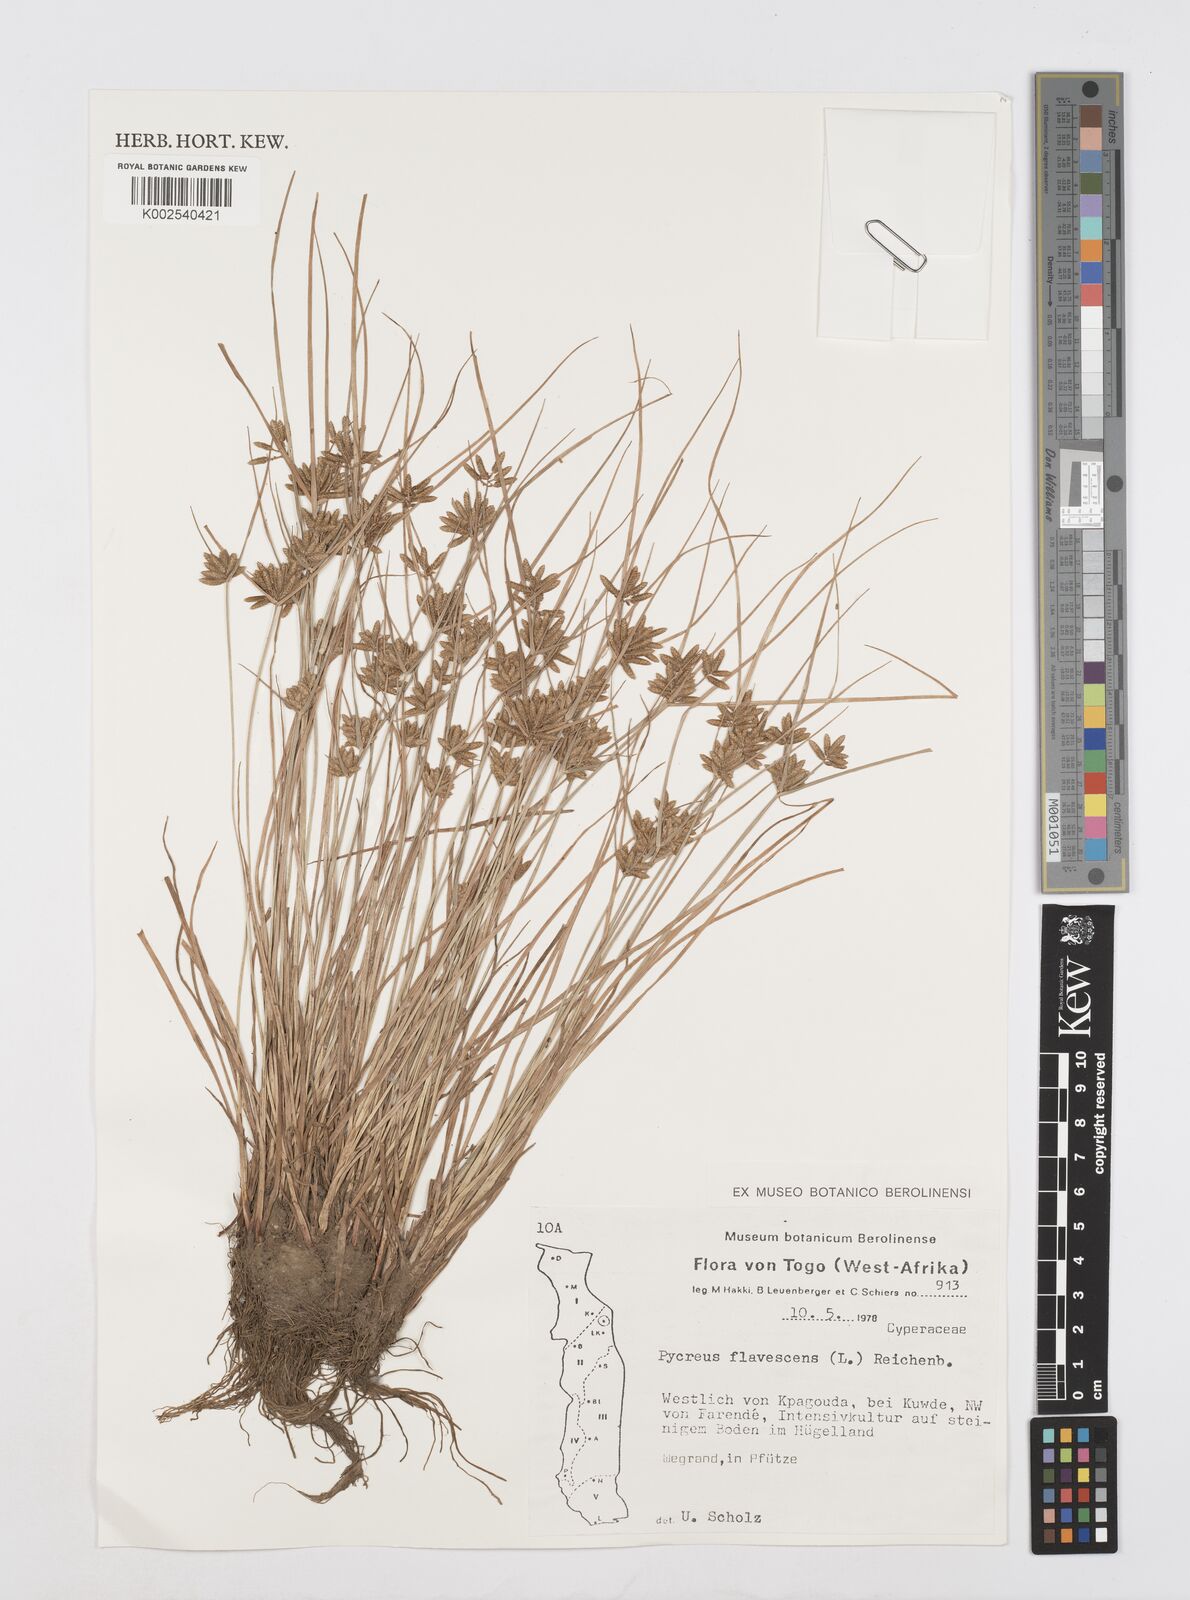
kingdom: Plantae
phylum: Tracheophyta
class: Liliopsida
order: Poales
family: Cyperaceae
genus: Cyperus
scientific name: Cyperus flavescens
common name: Yellow galingale
